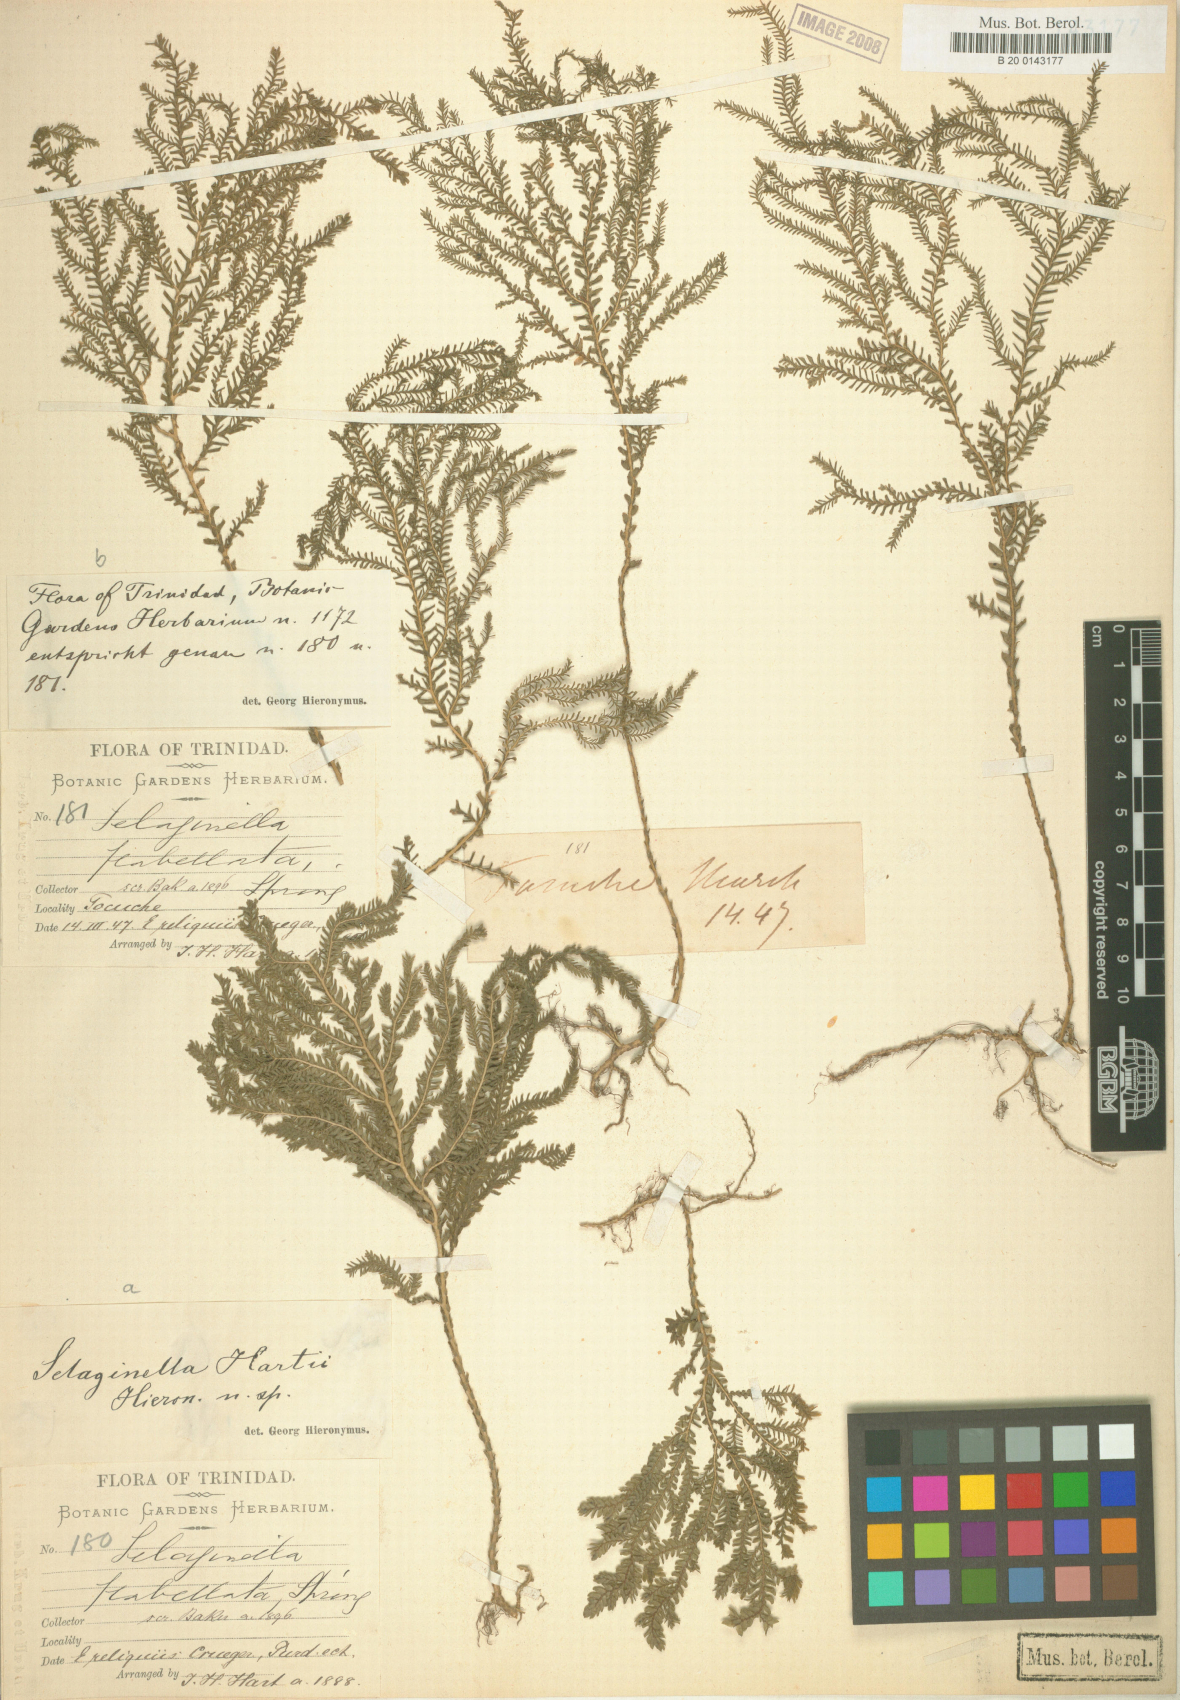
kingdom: Plantae
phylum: Tracheophyta
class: Lycopodiopsida
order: Selaginellales
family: Selaginellaceae
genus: Selaginella
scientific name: Selaginella hartii
